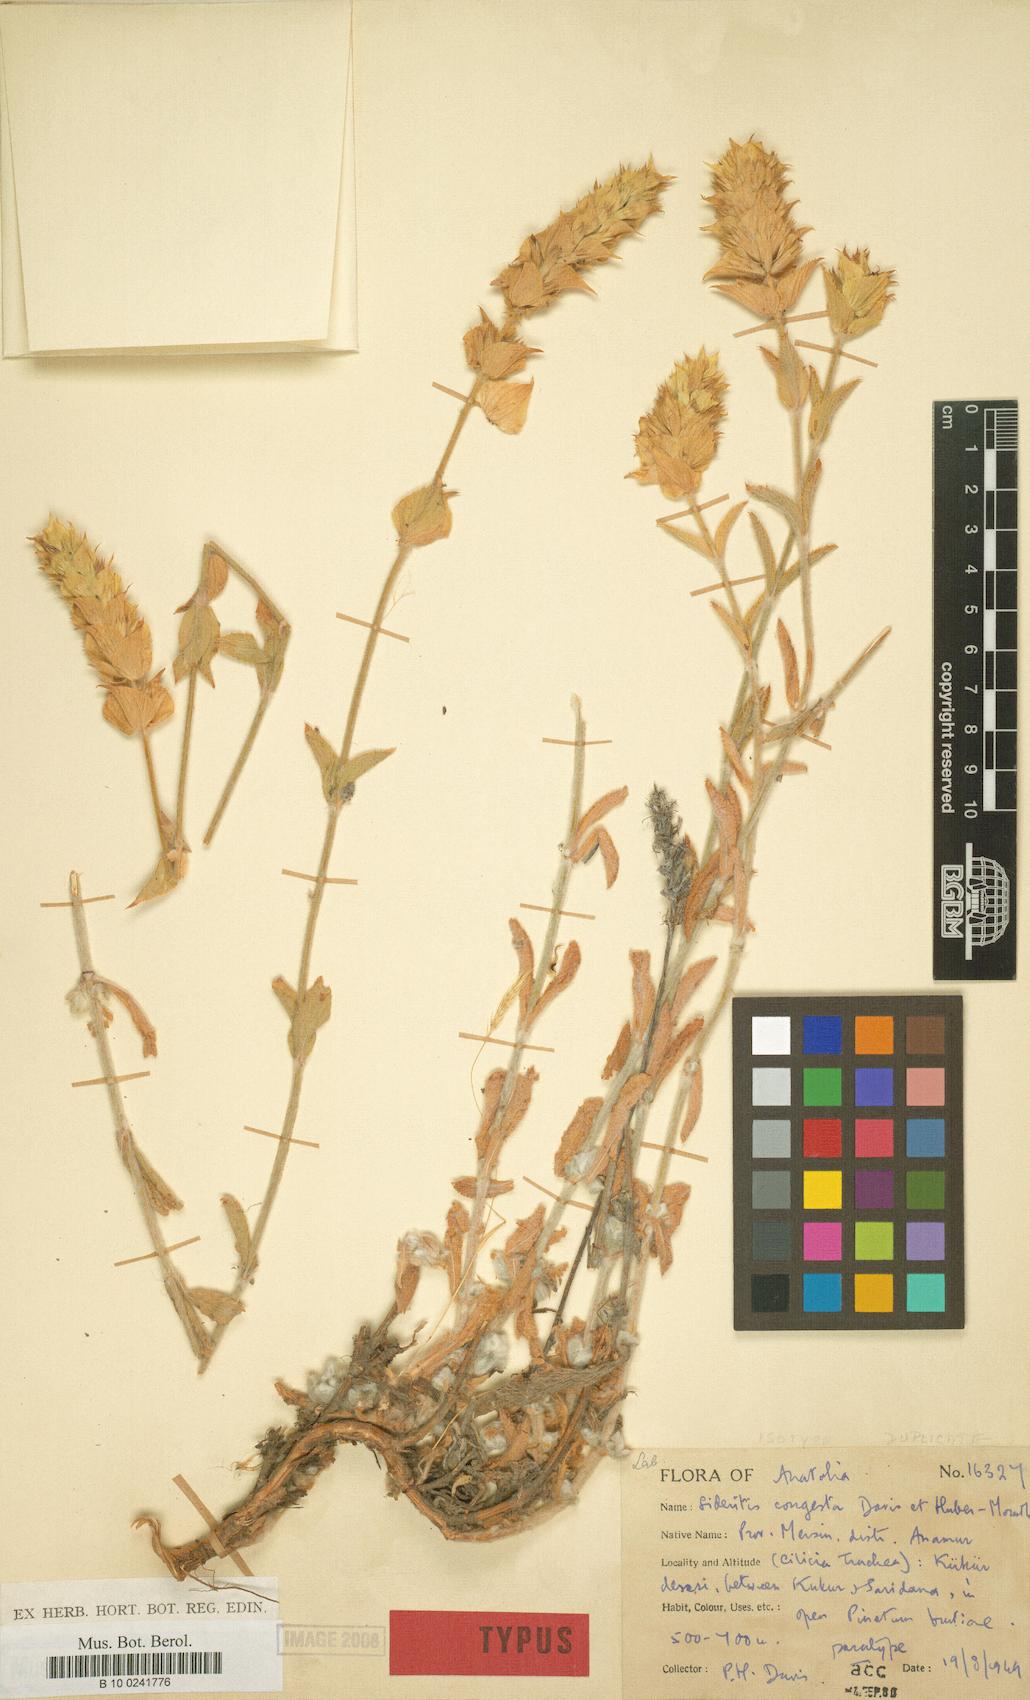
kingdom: Plantae
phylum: Tracheophyta
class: Magnoliopsida
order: Lamiales
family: Lamiaceae
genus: Sideritis
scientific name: Sideritis congesta
